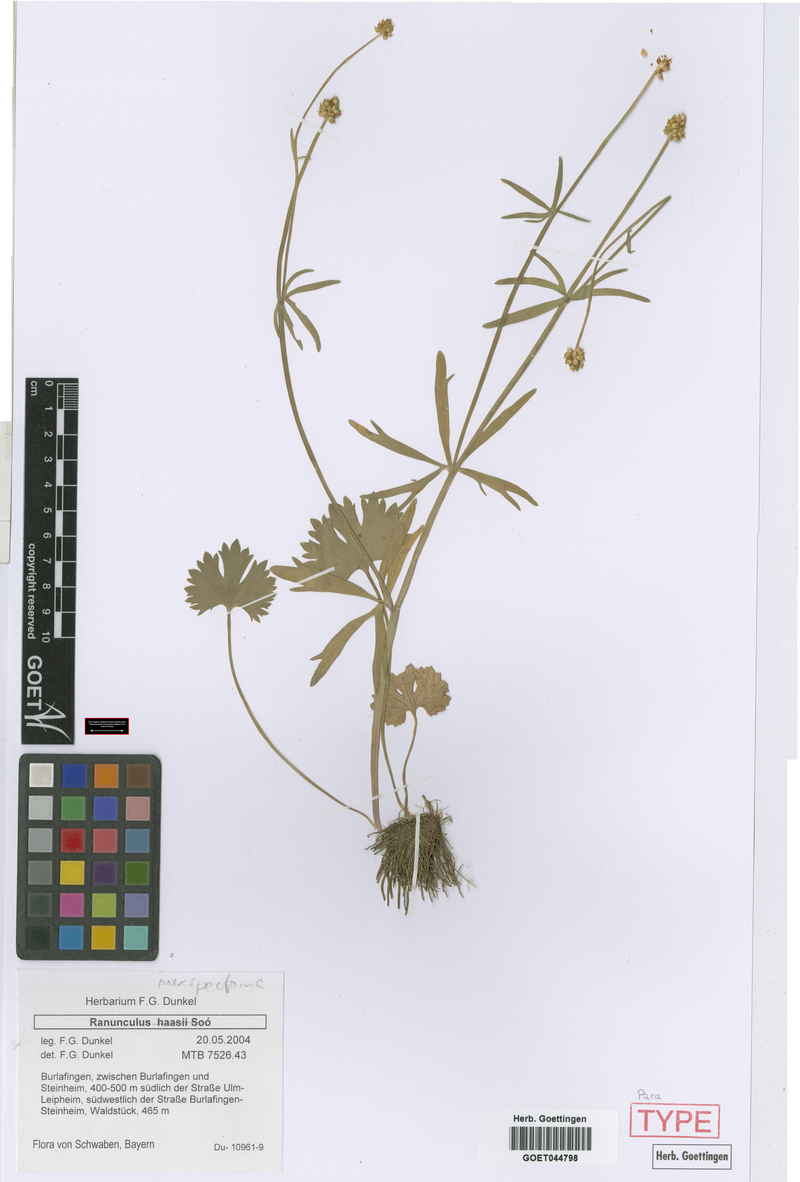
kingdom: Plantae
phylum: Tracheophyta
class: Magnoliopsida
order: Ranunculales
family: Ranunculaceae
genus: Ranunculus
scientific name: Ranunculus inexspectans
